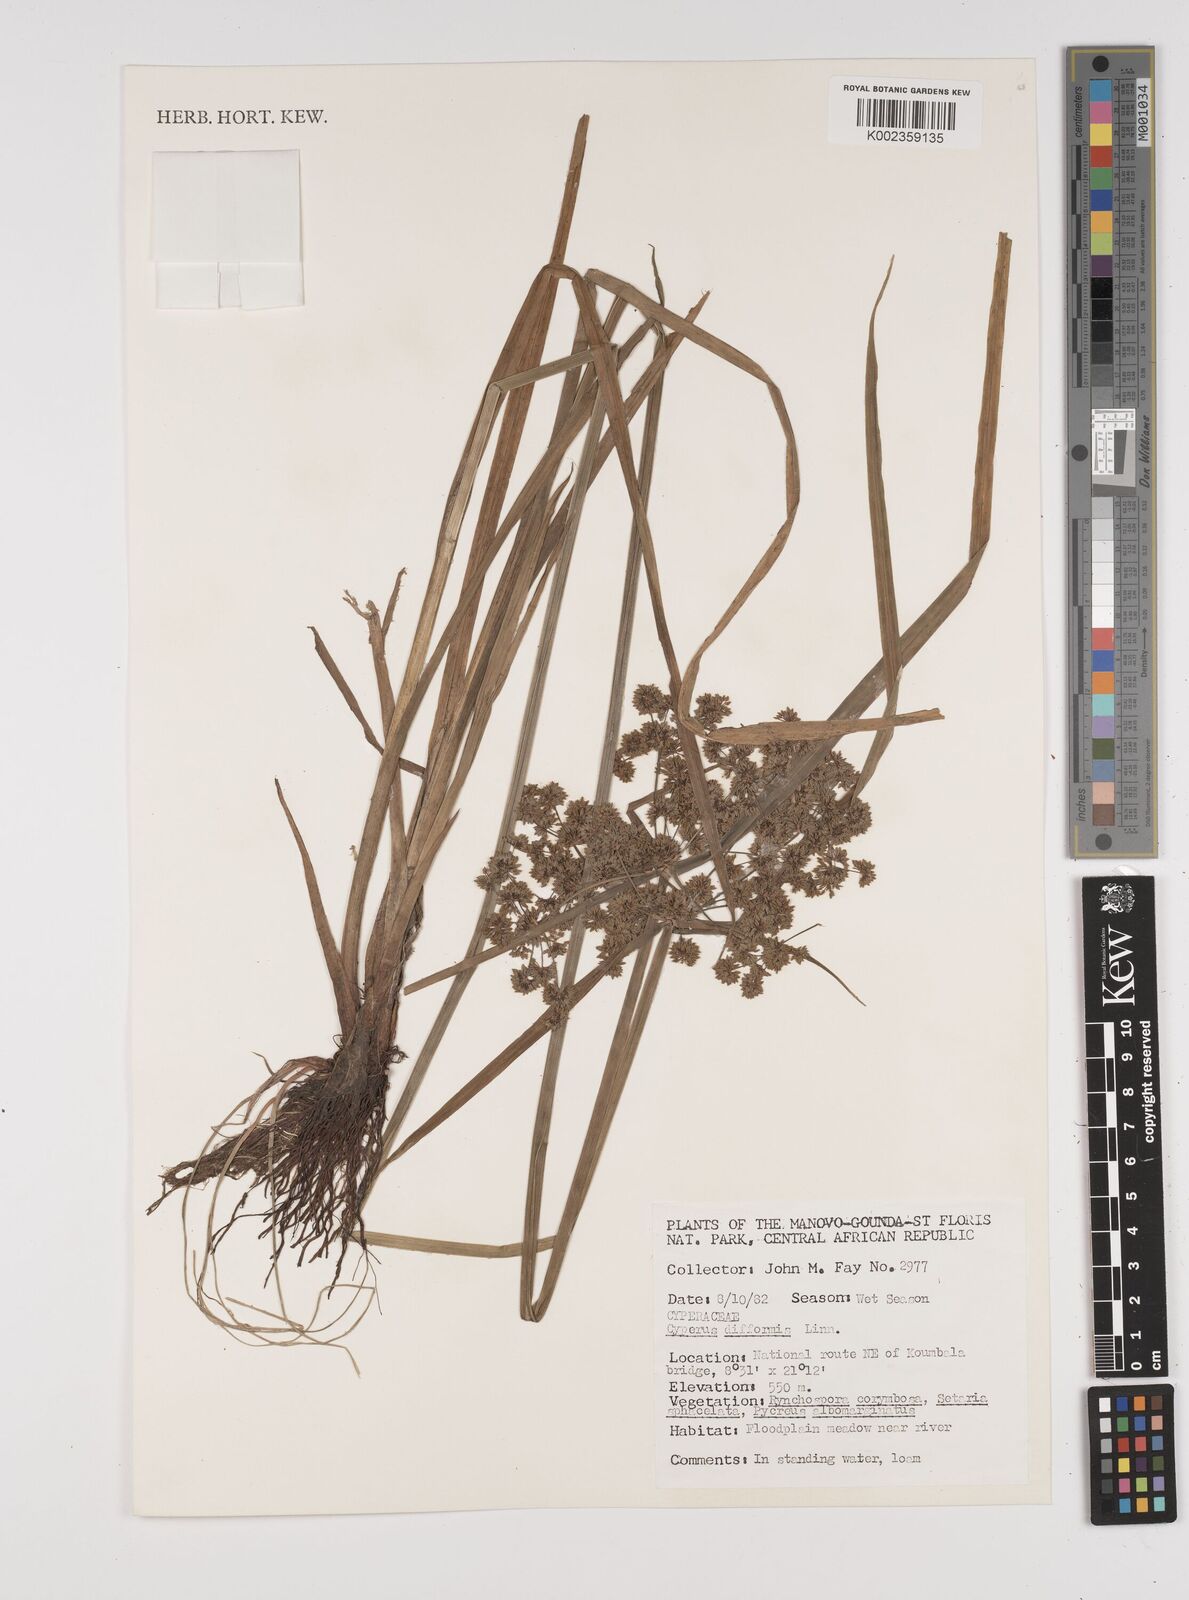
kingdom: Plantae
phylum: Tracheophyta
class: Liliopsida
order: Poales
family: Cyperaceae
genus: Cyperus
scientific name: Cyperus difformis
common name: Variable flatsedge
